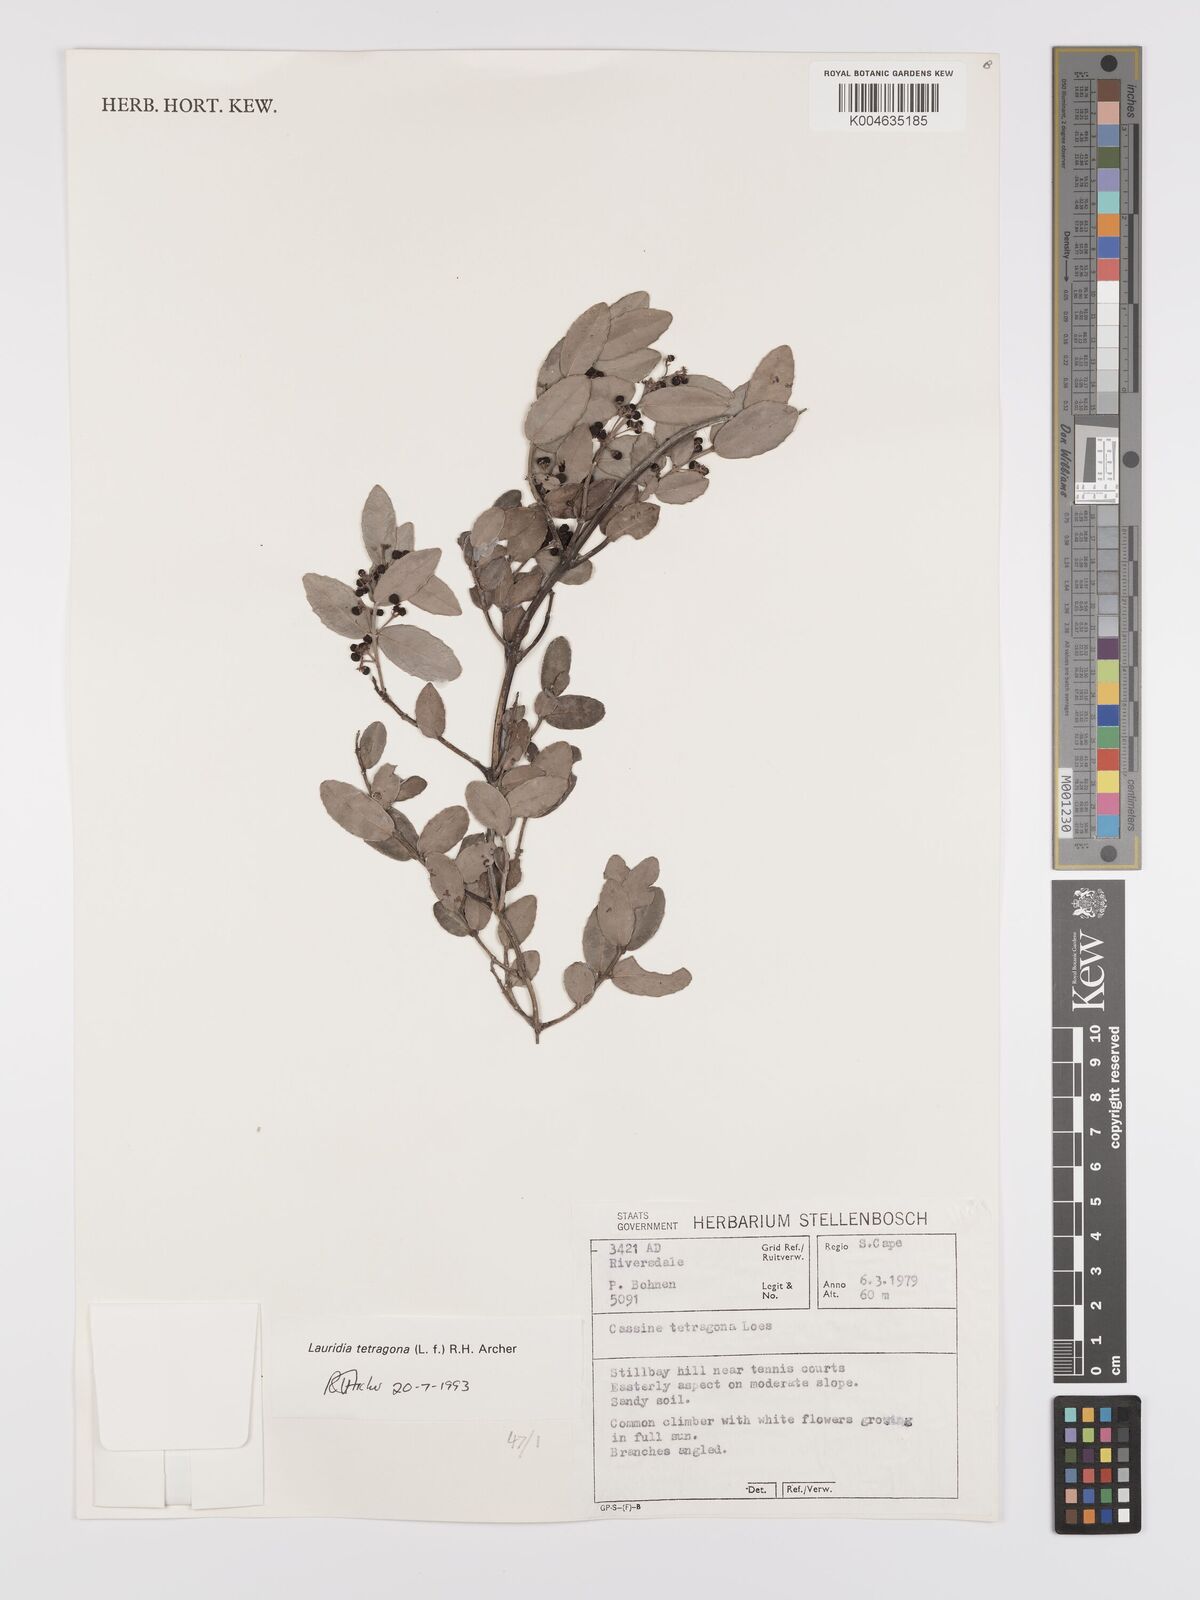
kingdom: Plantae
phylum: Tracheophyta
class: Magnoliopsida
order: Celastrales
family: Celastraceae
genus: Lauridia
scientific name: Lauridia tetragona
